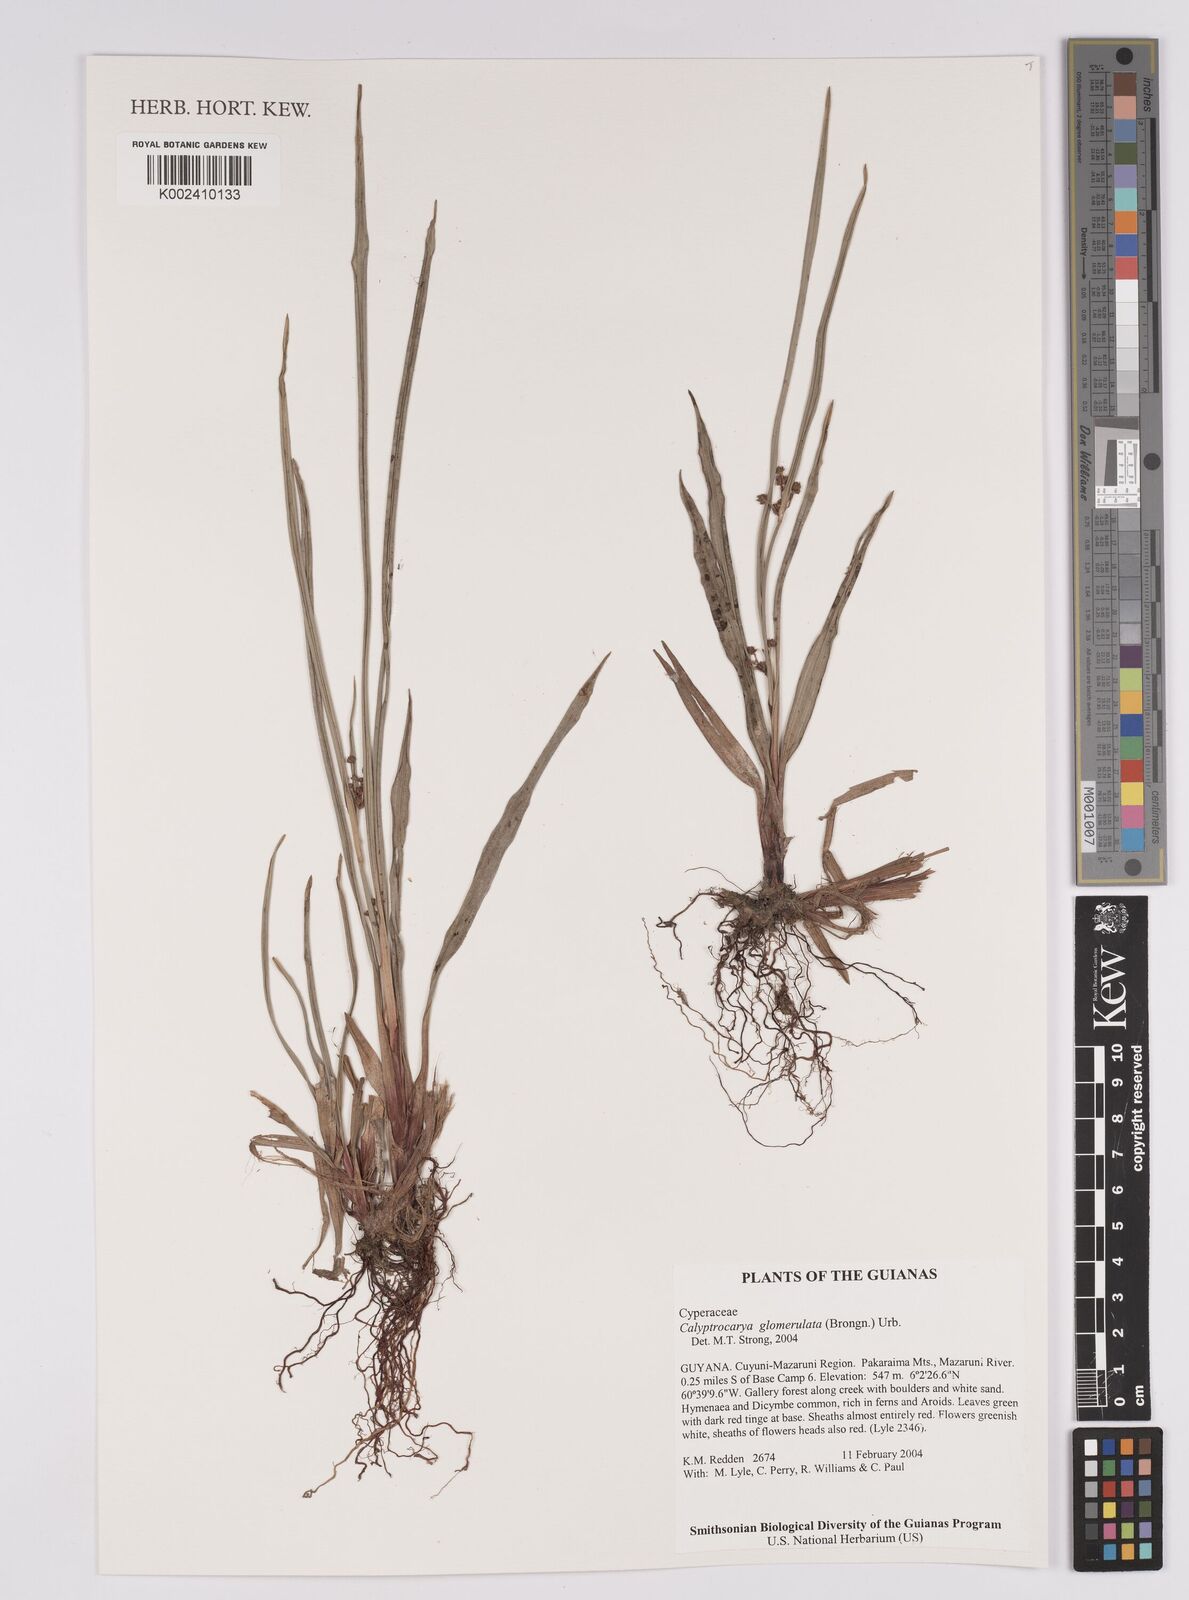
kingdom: Plantae
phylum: Tracheophyta
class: Liliopsida
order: Poales
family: Cyperaceae
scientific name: Cyperaceae
